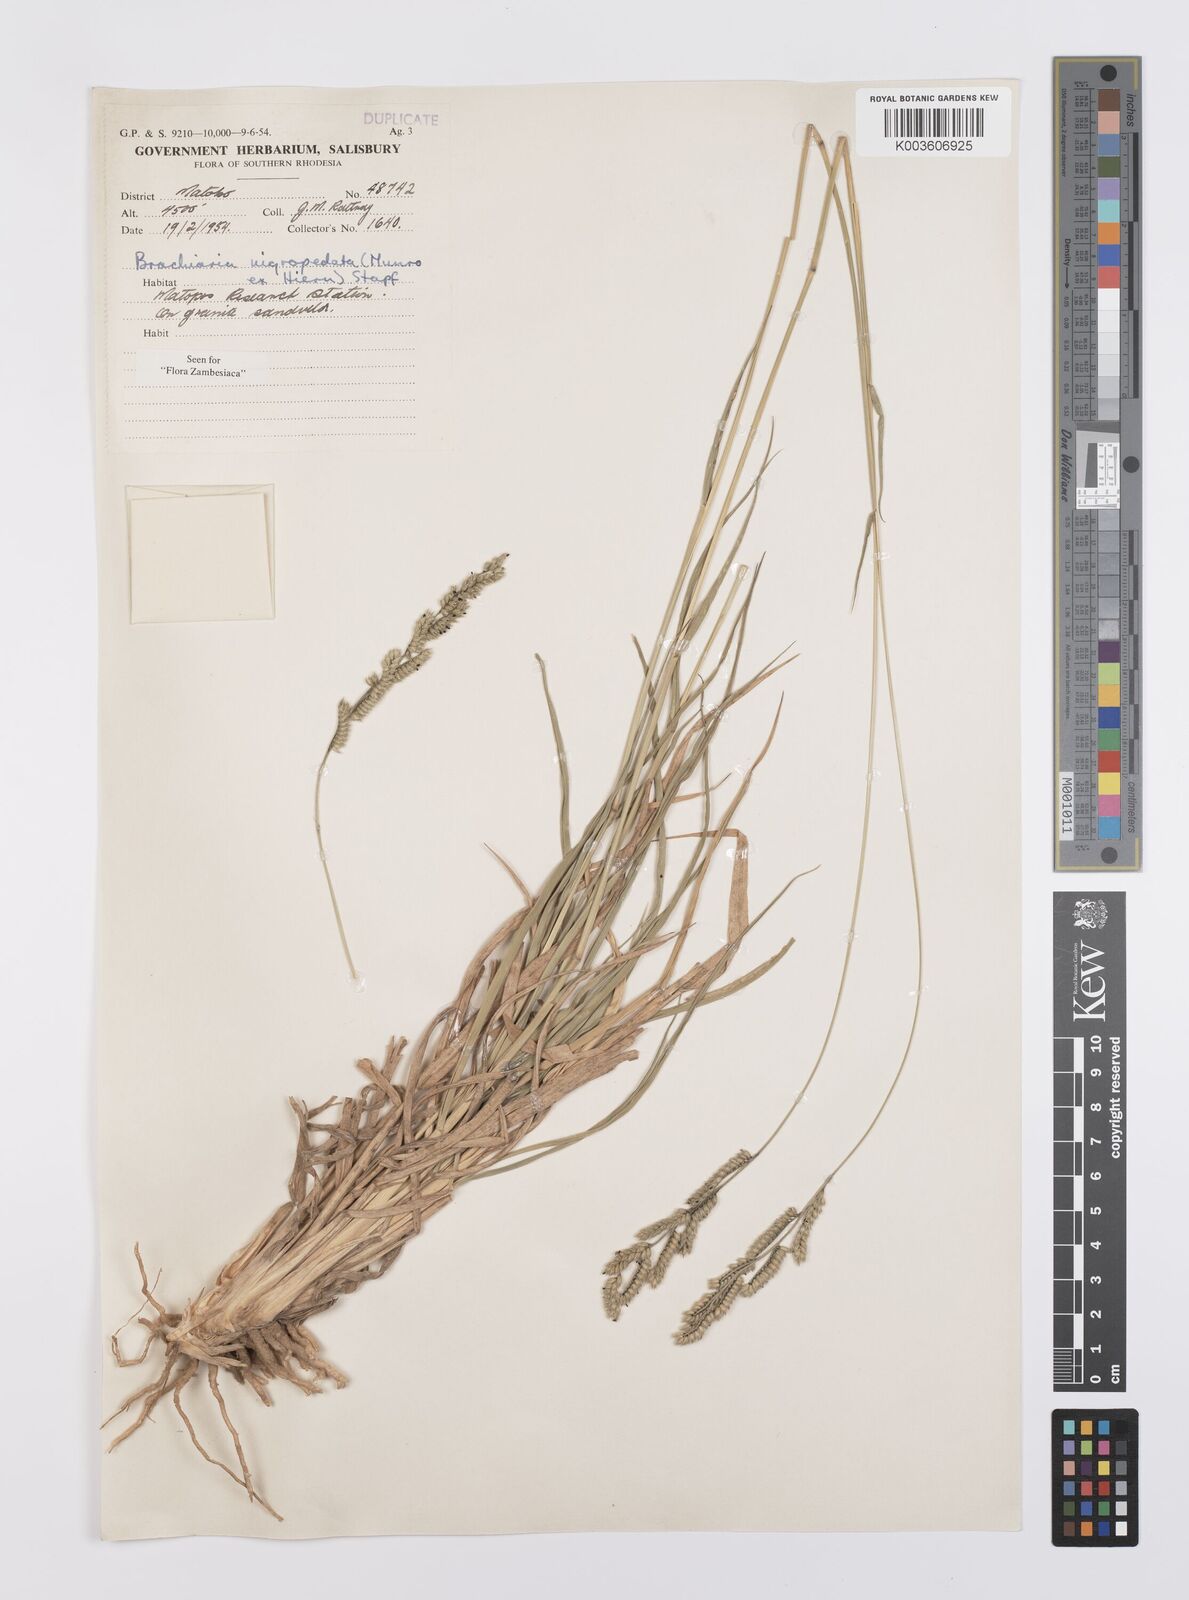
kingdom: Plantae
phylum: Tracheophyta
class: Liliopsida
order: Poales
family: Poaceae
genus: Urochloa
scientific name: Urochloa nigropedata
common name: Spotted signal grass
